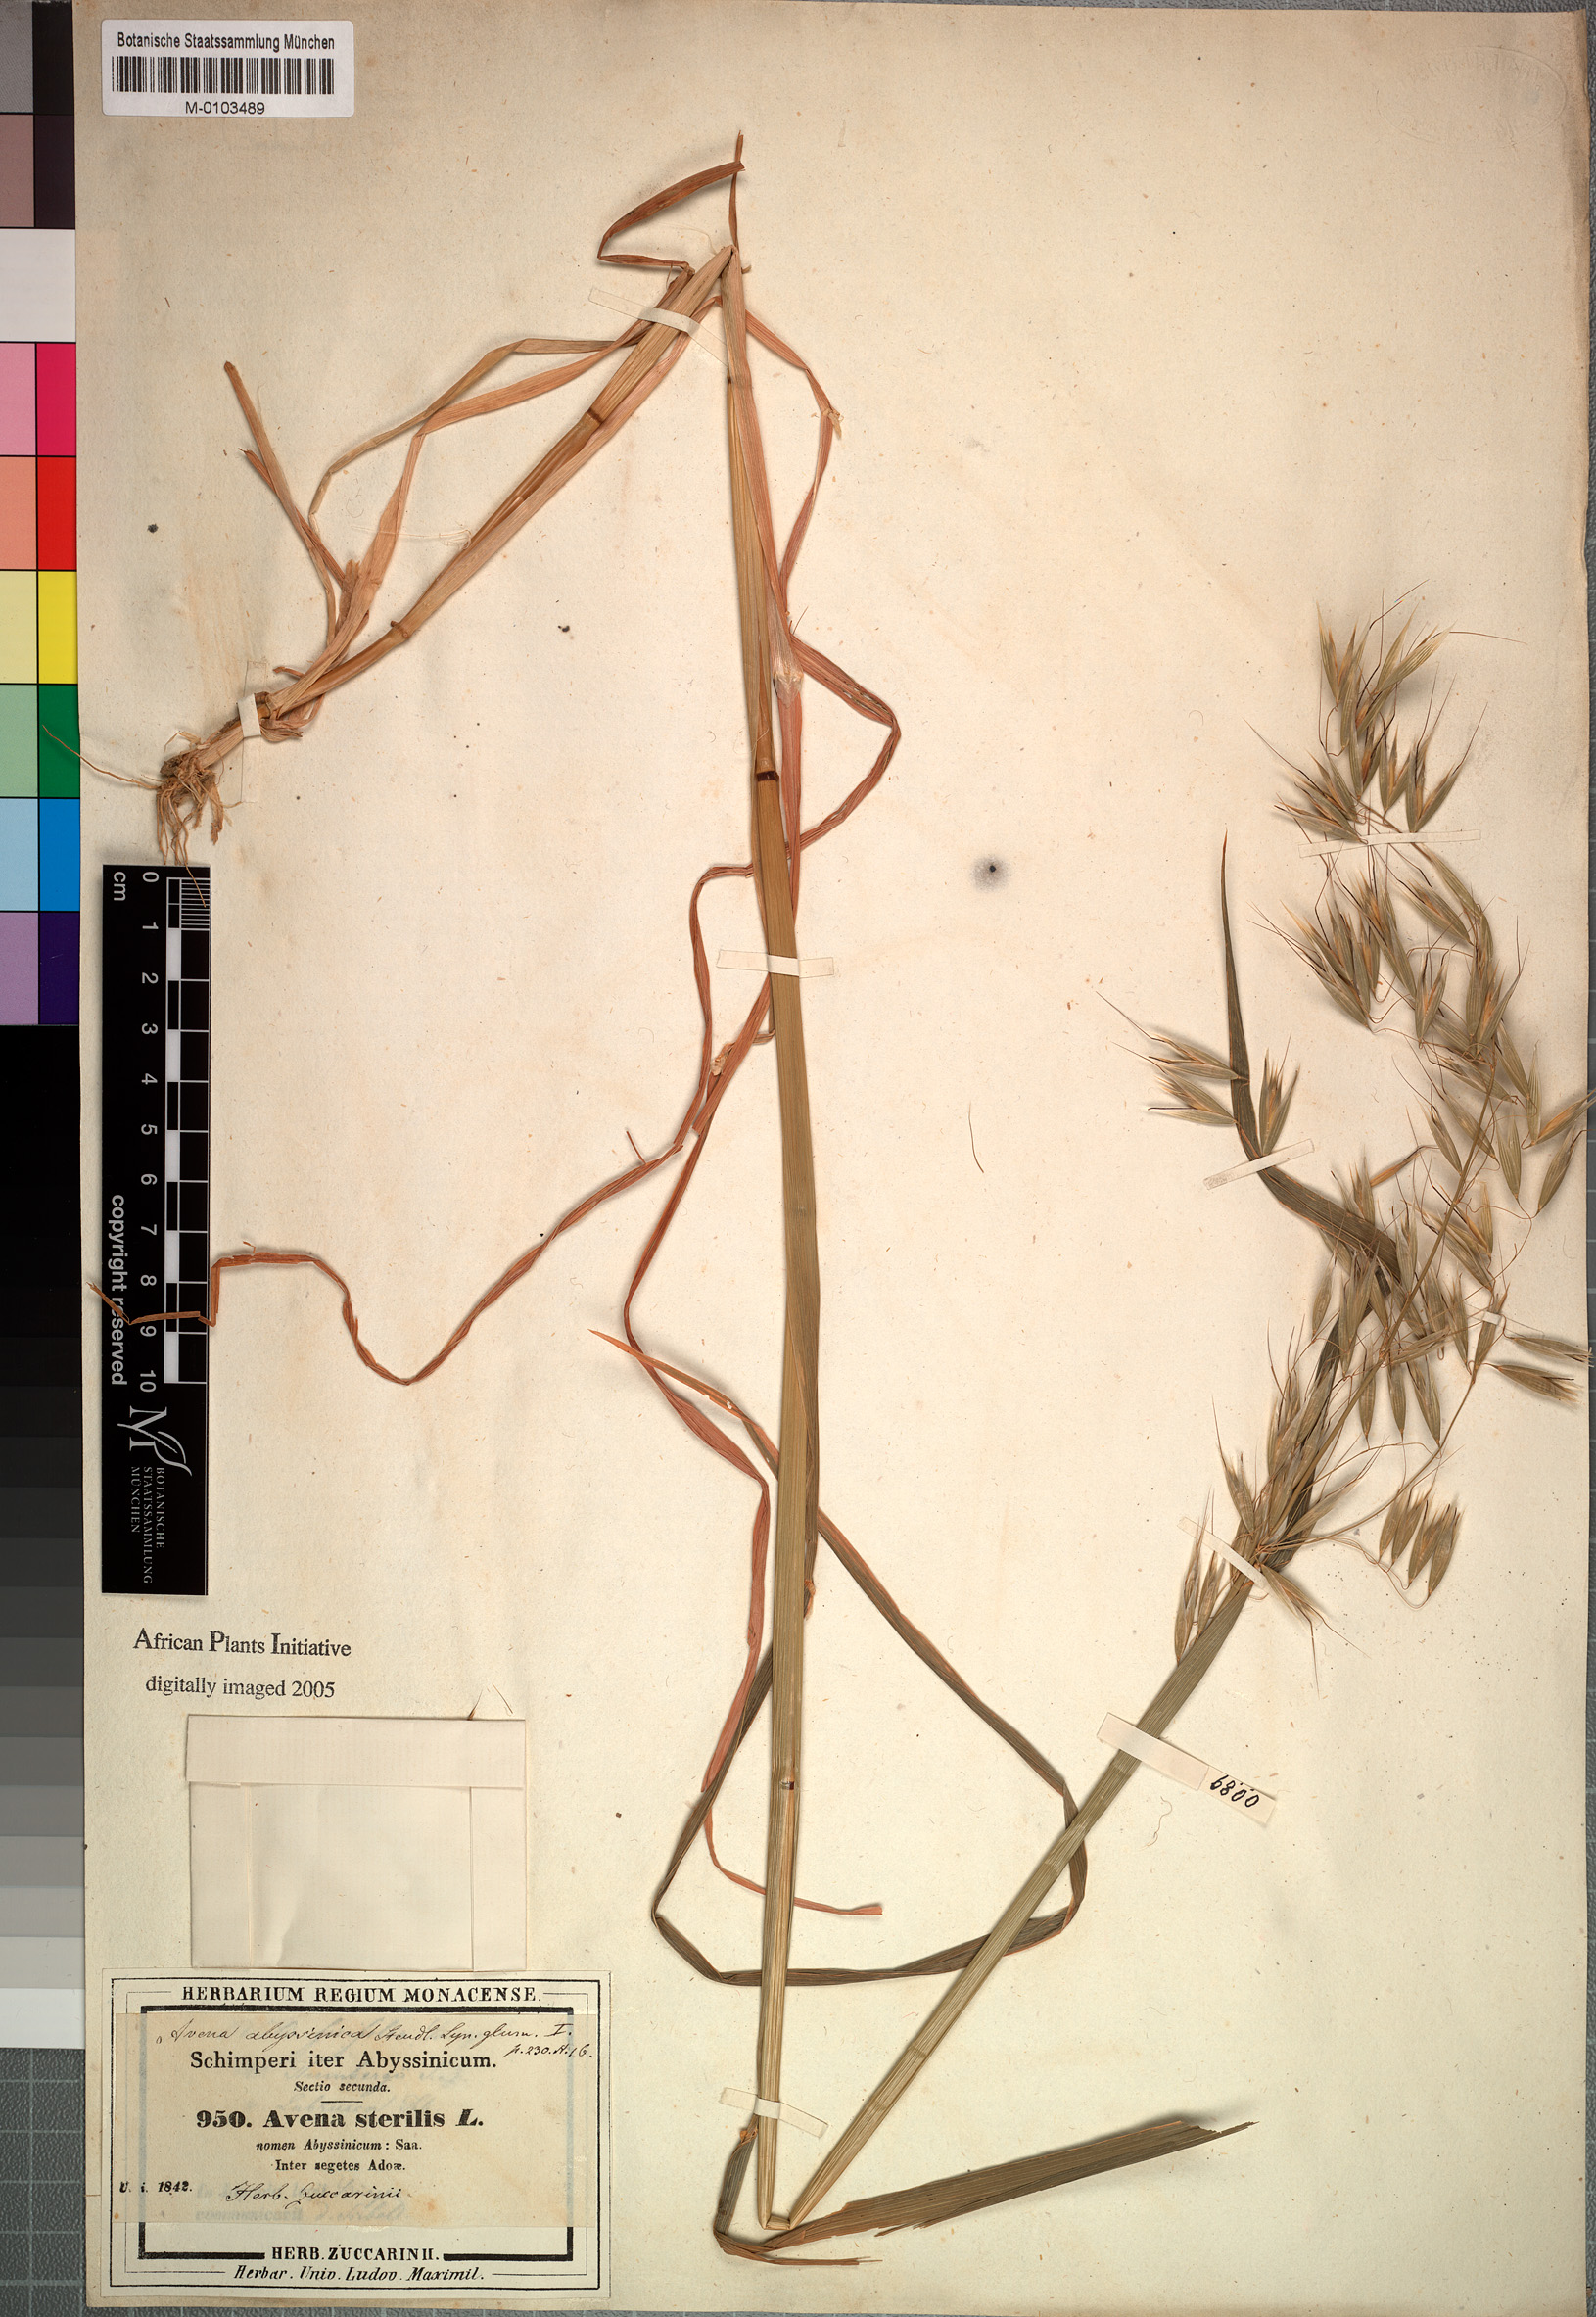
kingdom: Plantae
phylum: Tracheophyta
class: Liliopsida
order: Poales
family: Poaceae
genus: Avena
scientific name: Avena vaviloviana
